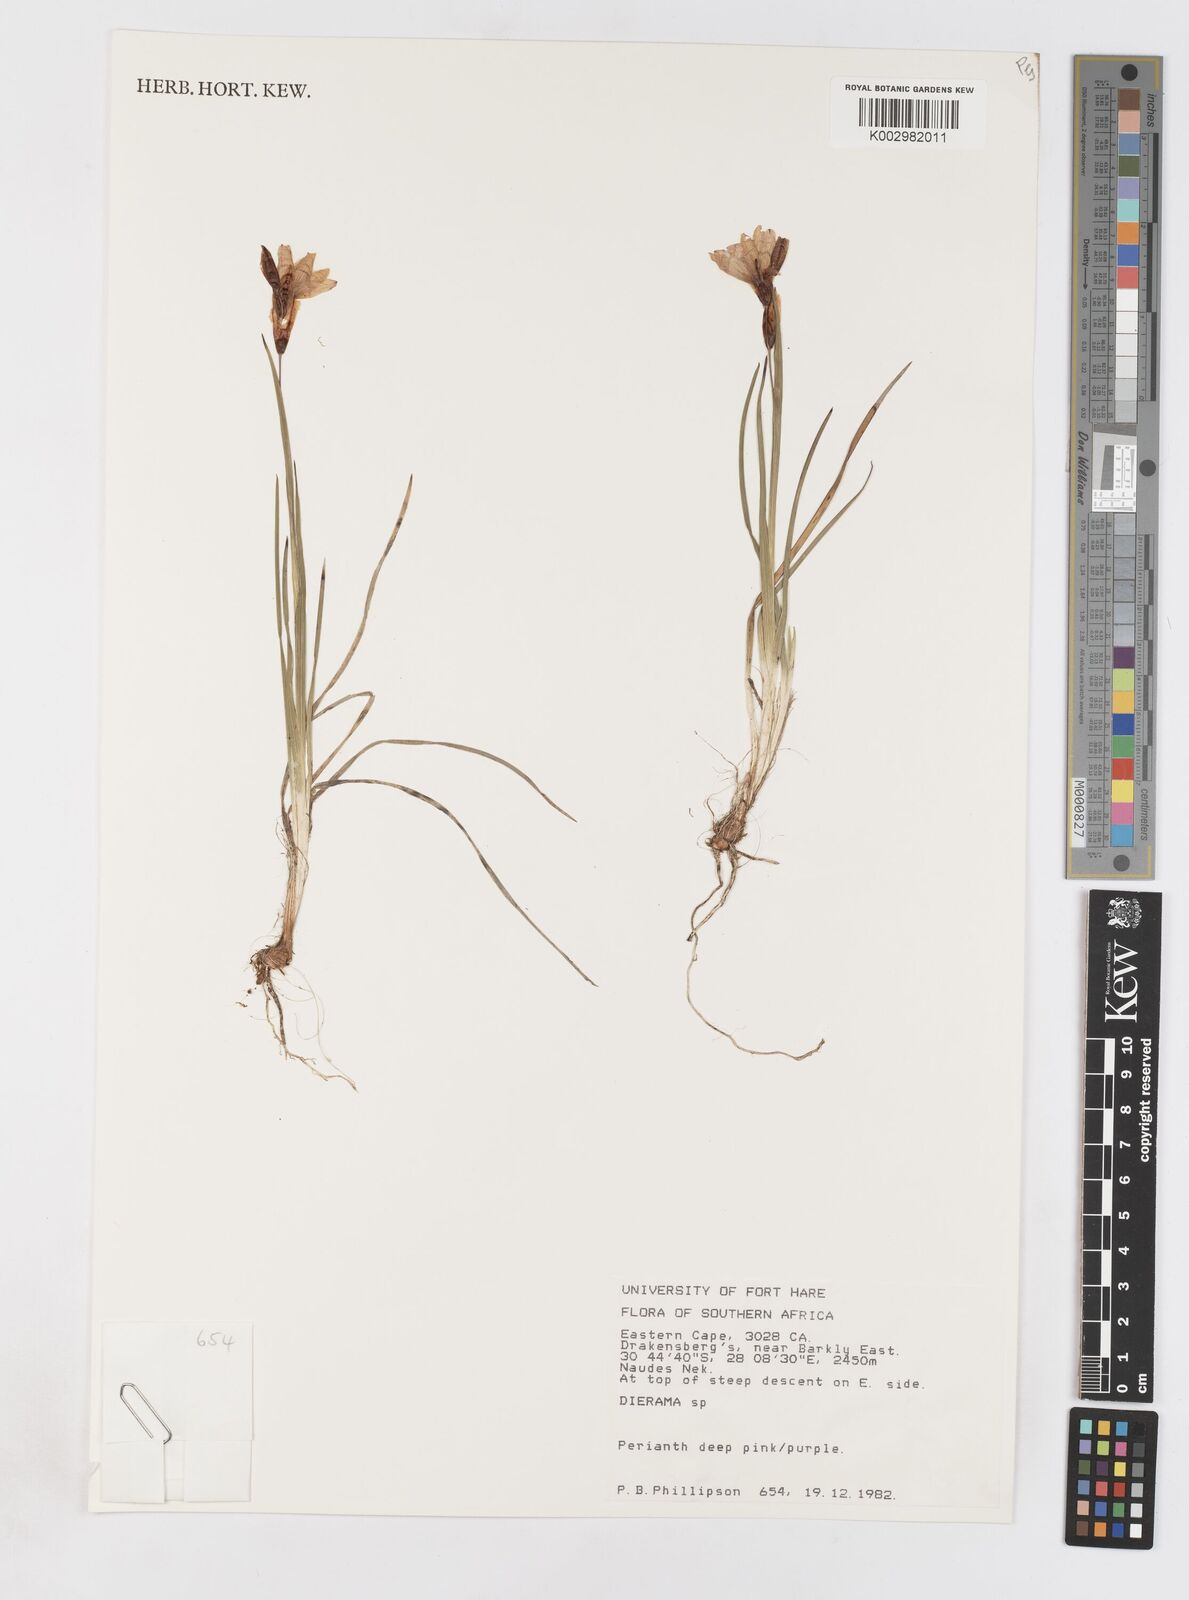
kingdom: Plantae
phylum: Tracheophyta
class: Liliopsida
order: Asparagales
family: Iridaceae
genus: Dierama
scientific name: Dierama
